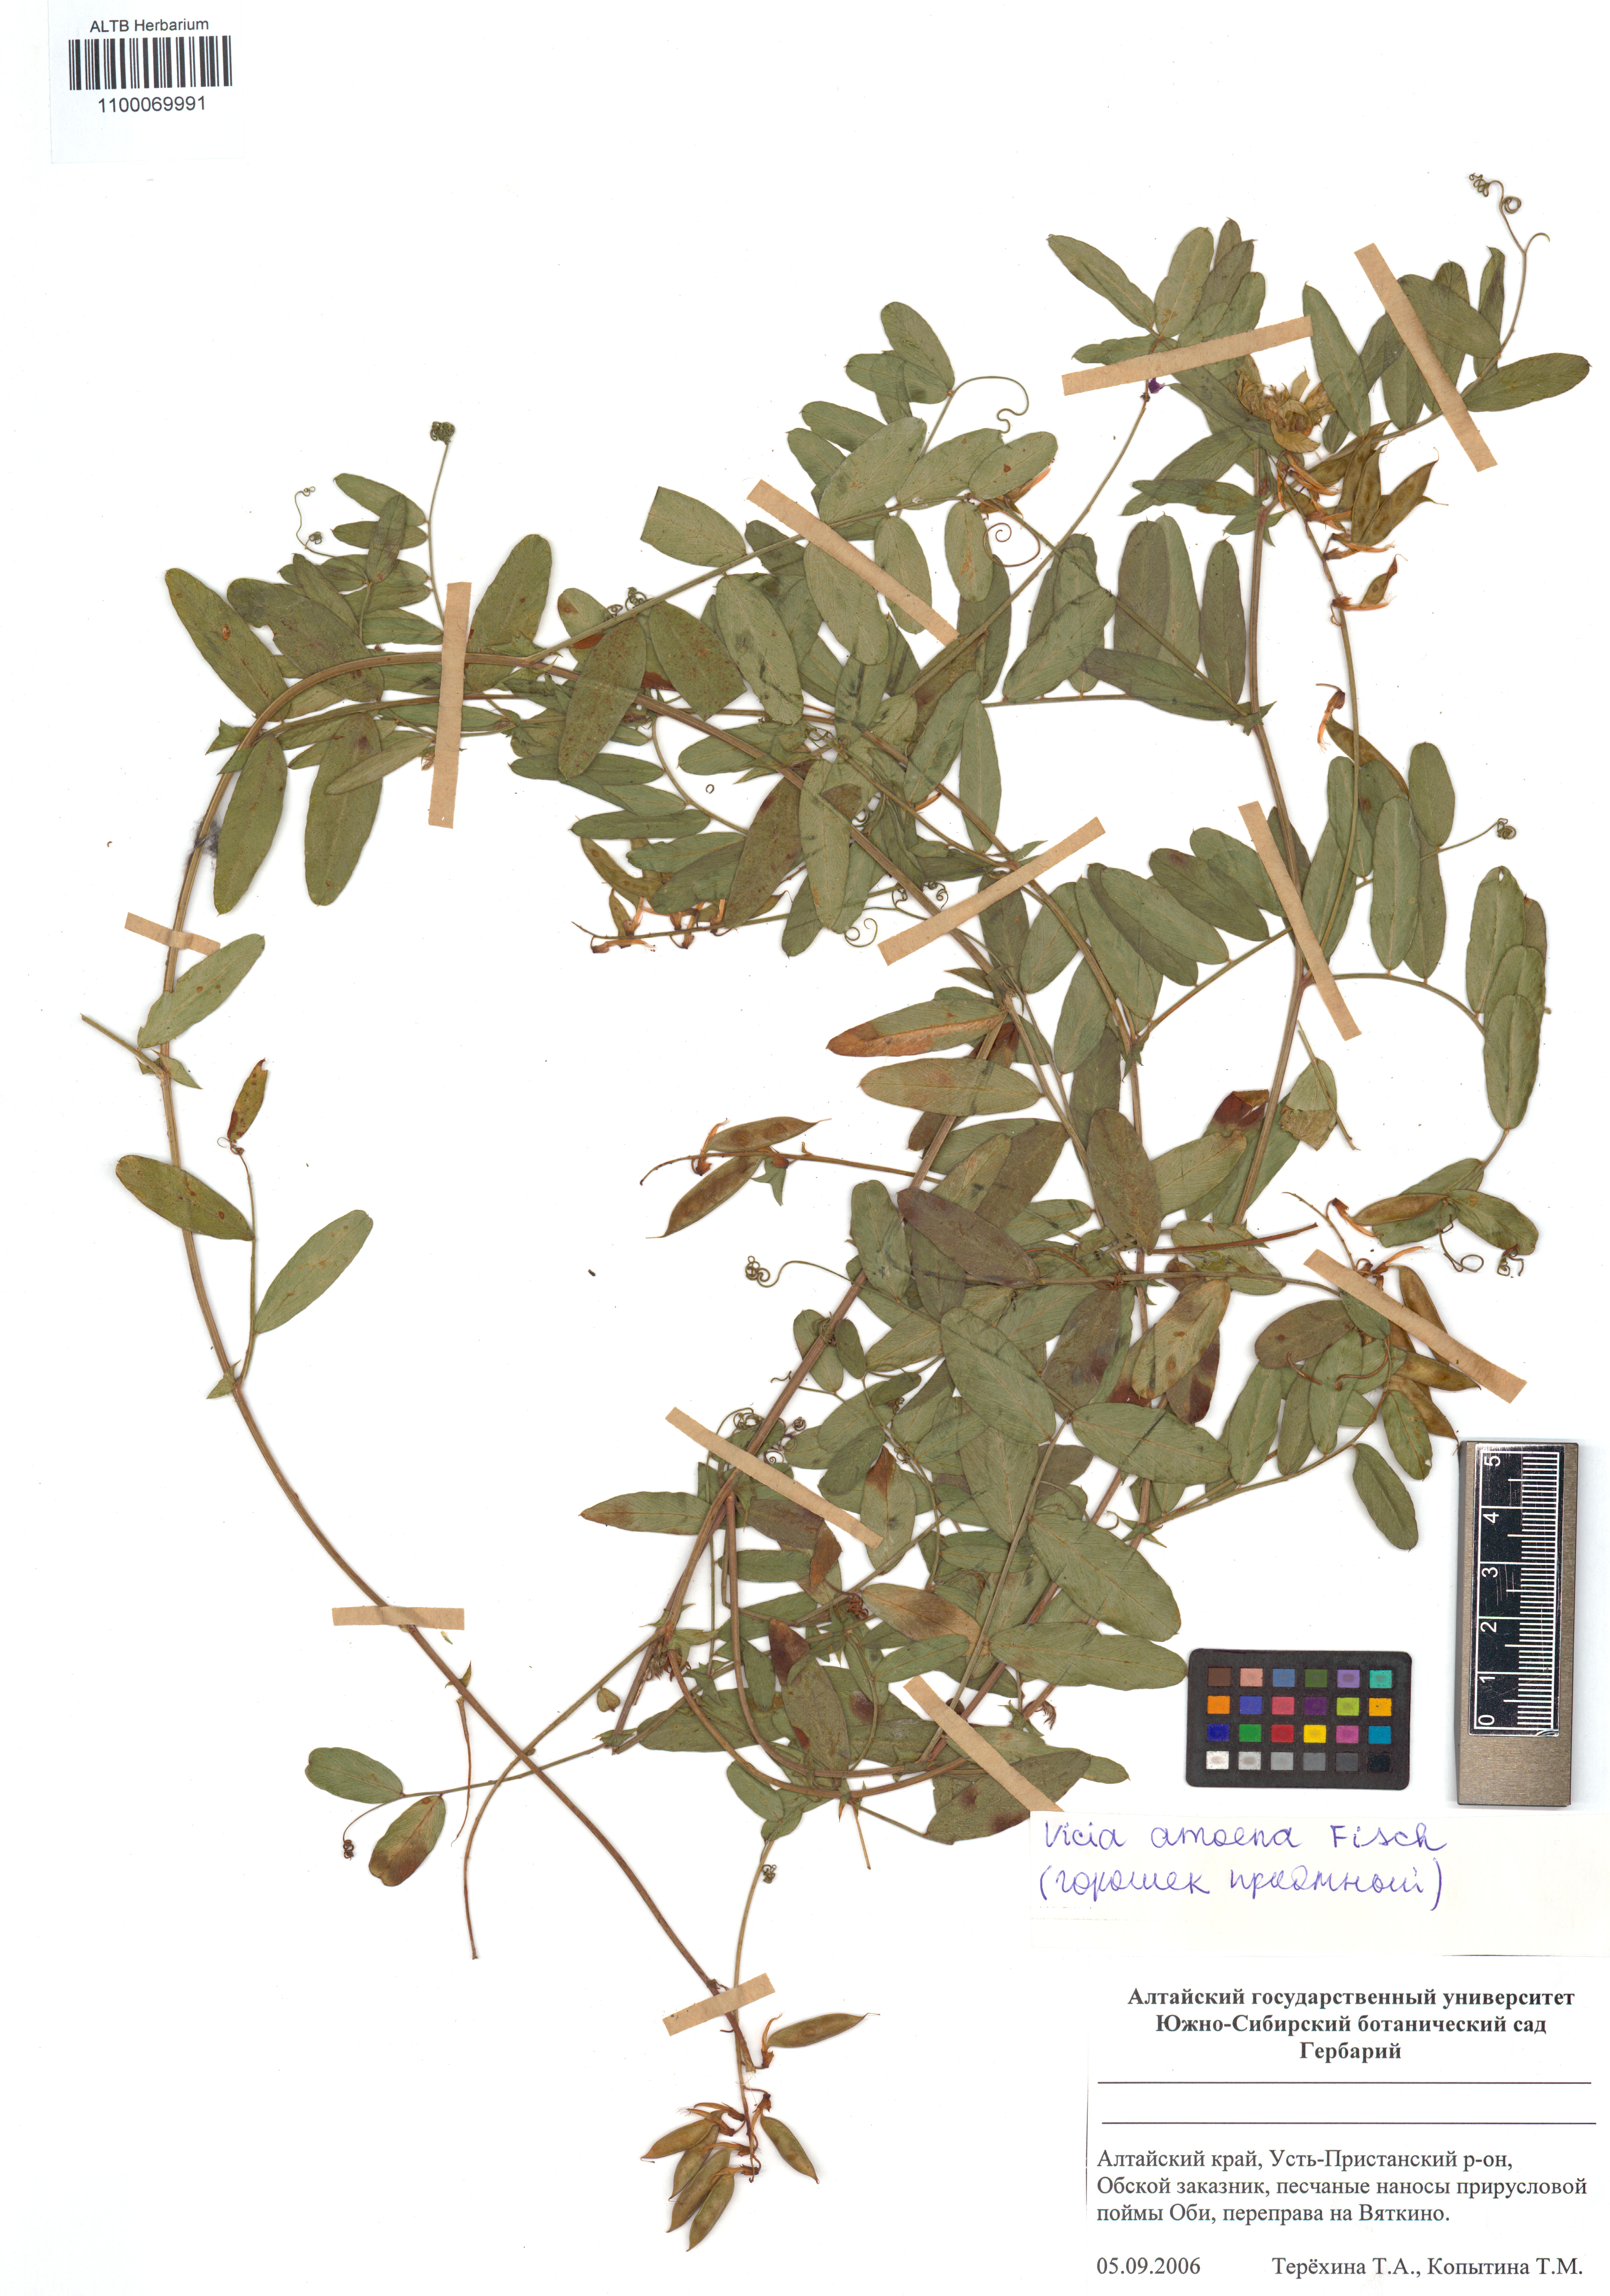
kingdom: Plantae
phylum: Tracheophyta
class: Magnoliopsida
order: Fabales
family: Fabaceae
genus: Vicia
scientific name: Vicia amoena
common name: Cheder ebs
